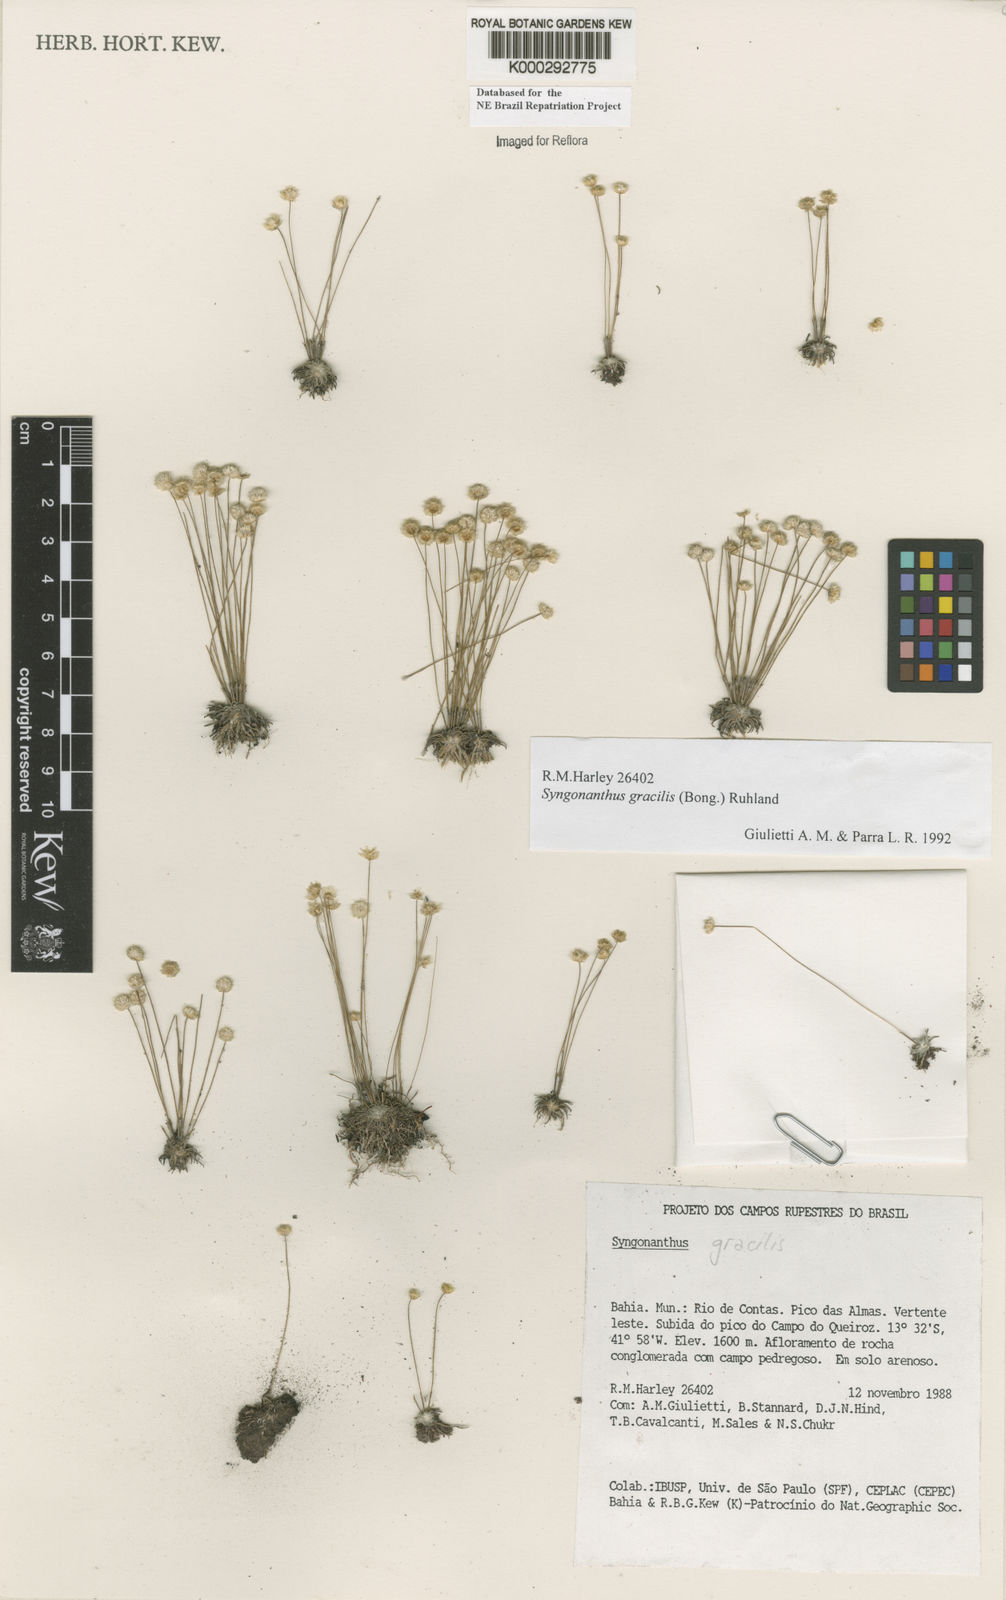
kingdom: Plantae
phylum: Tracheophyta
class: Liliopsida
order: Poales
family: Eriocaulaceae
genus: Syngonanthus
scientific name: Syngonanthus gracilis
